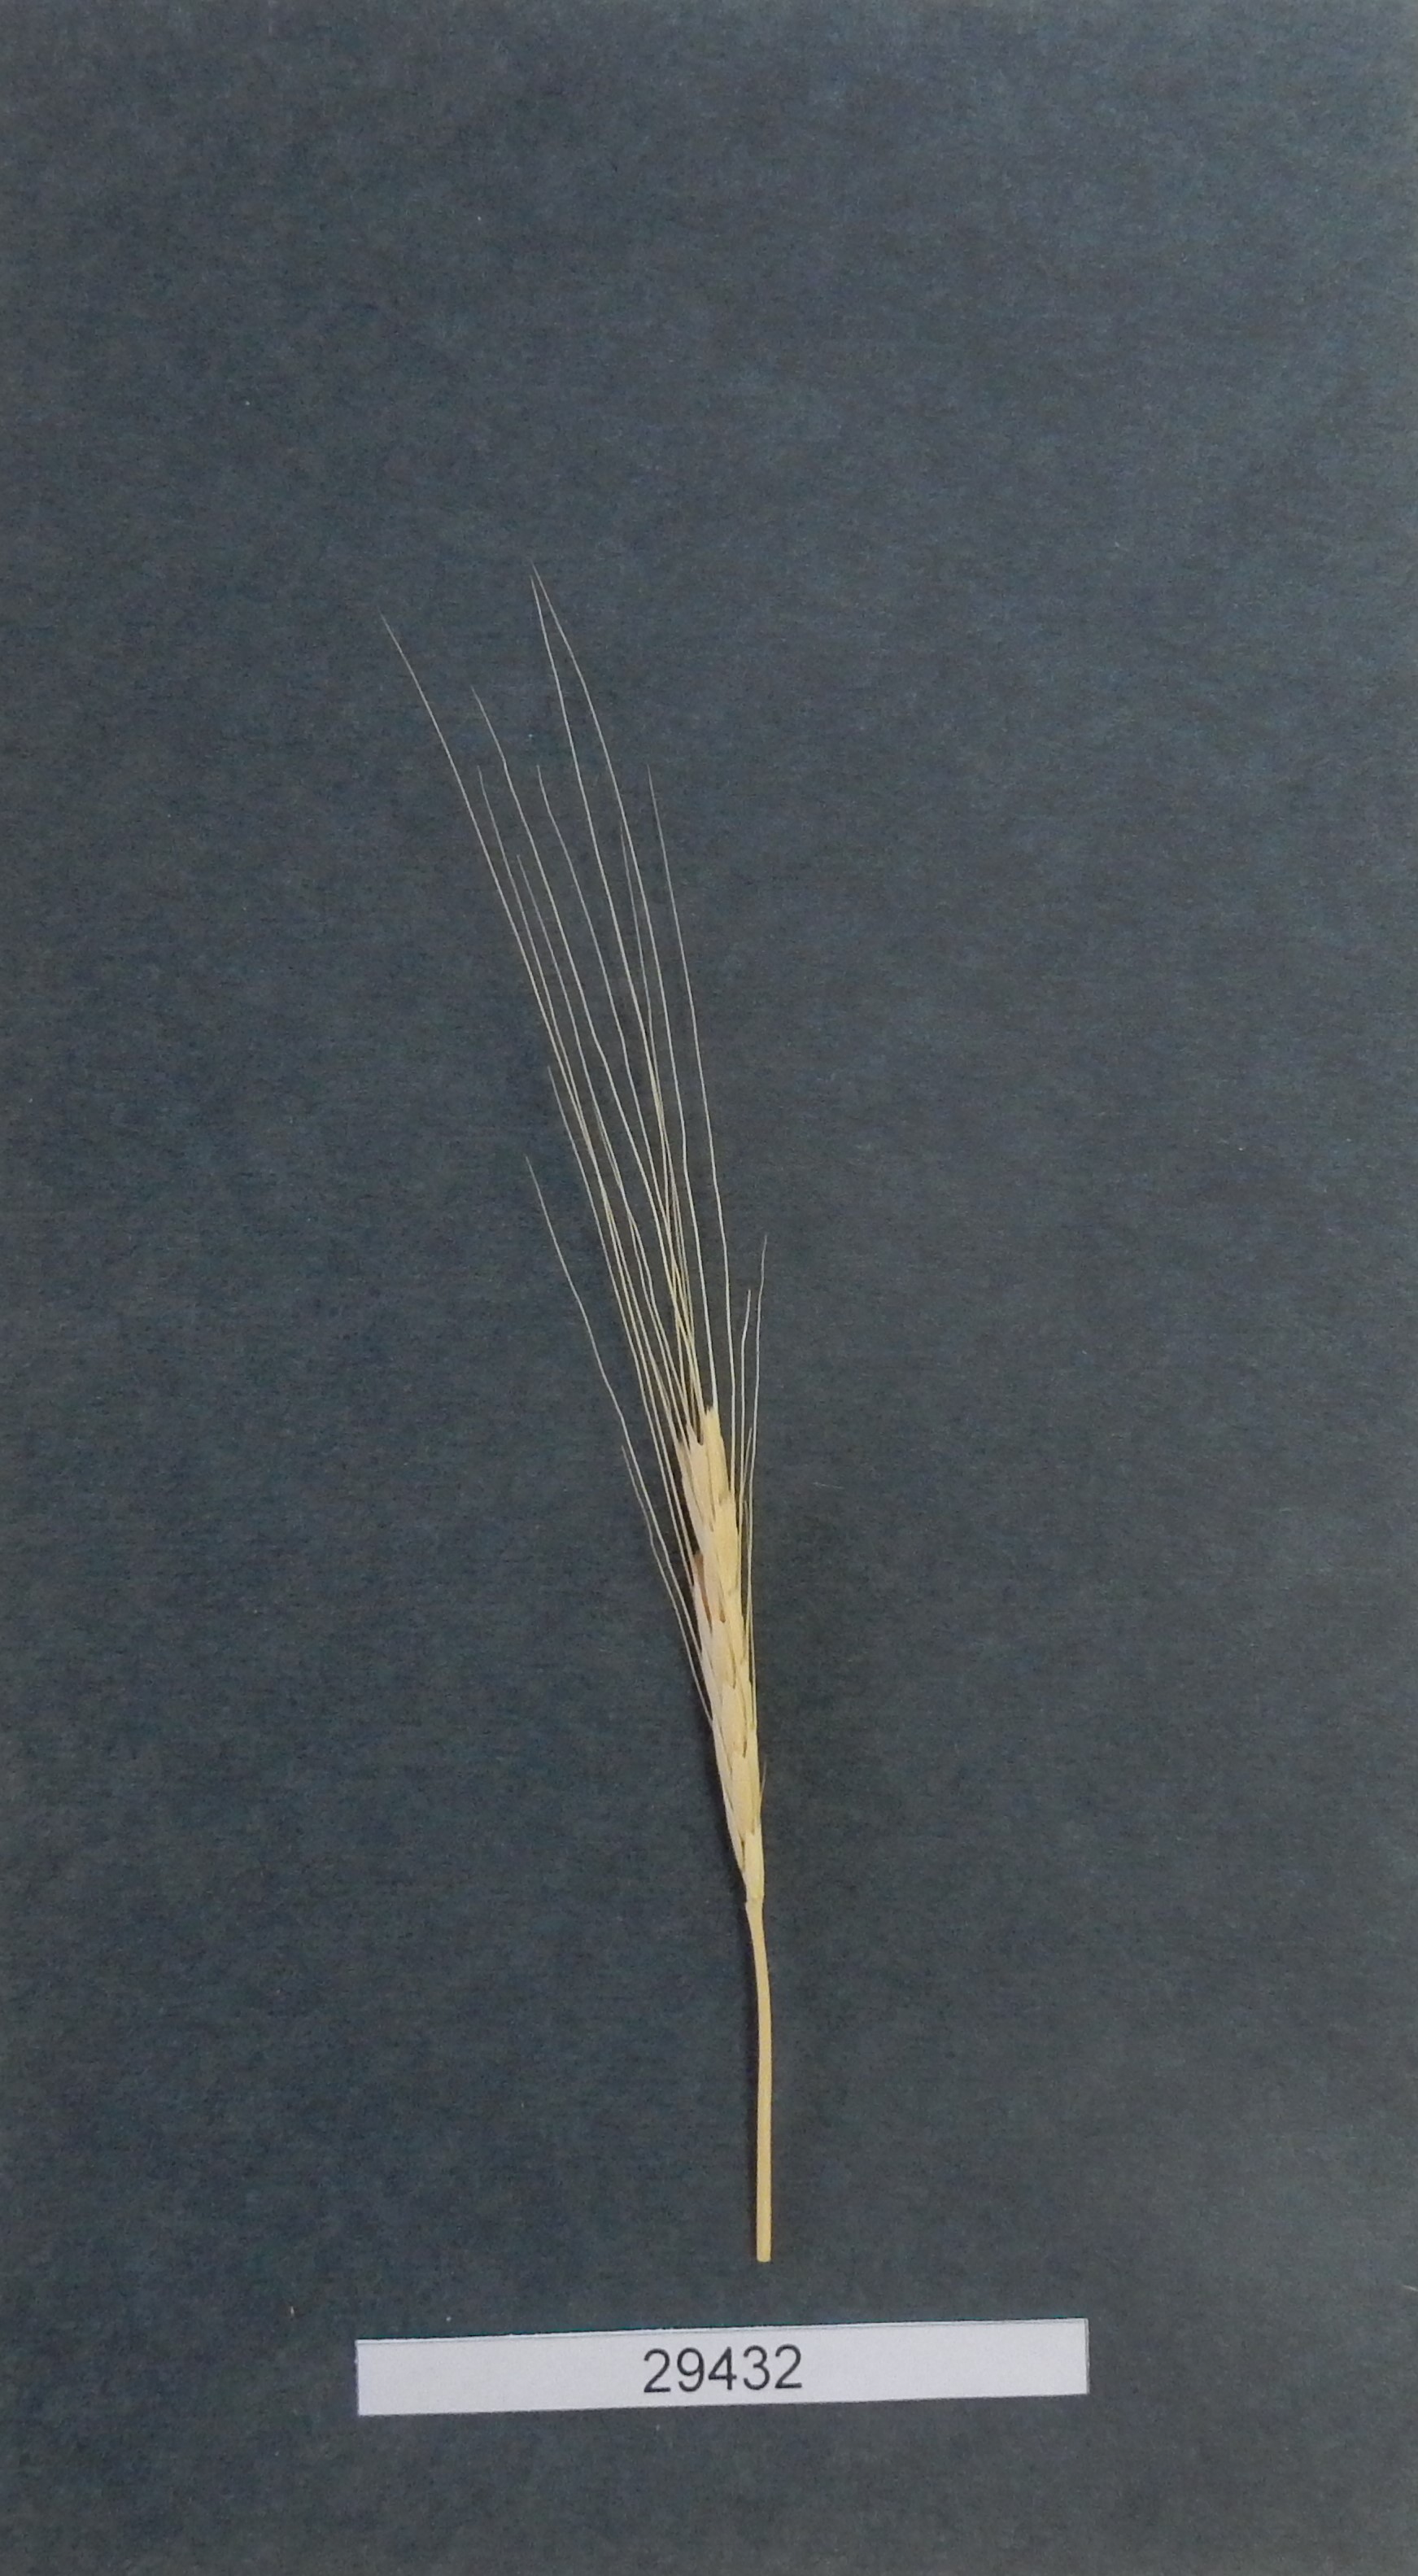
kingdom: Plantae
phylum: Tracheophyta
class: Liliopsida
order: Poales
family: Poaceae
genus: Triticum
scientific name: Triticum monococcum
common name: Wheat
